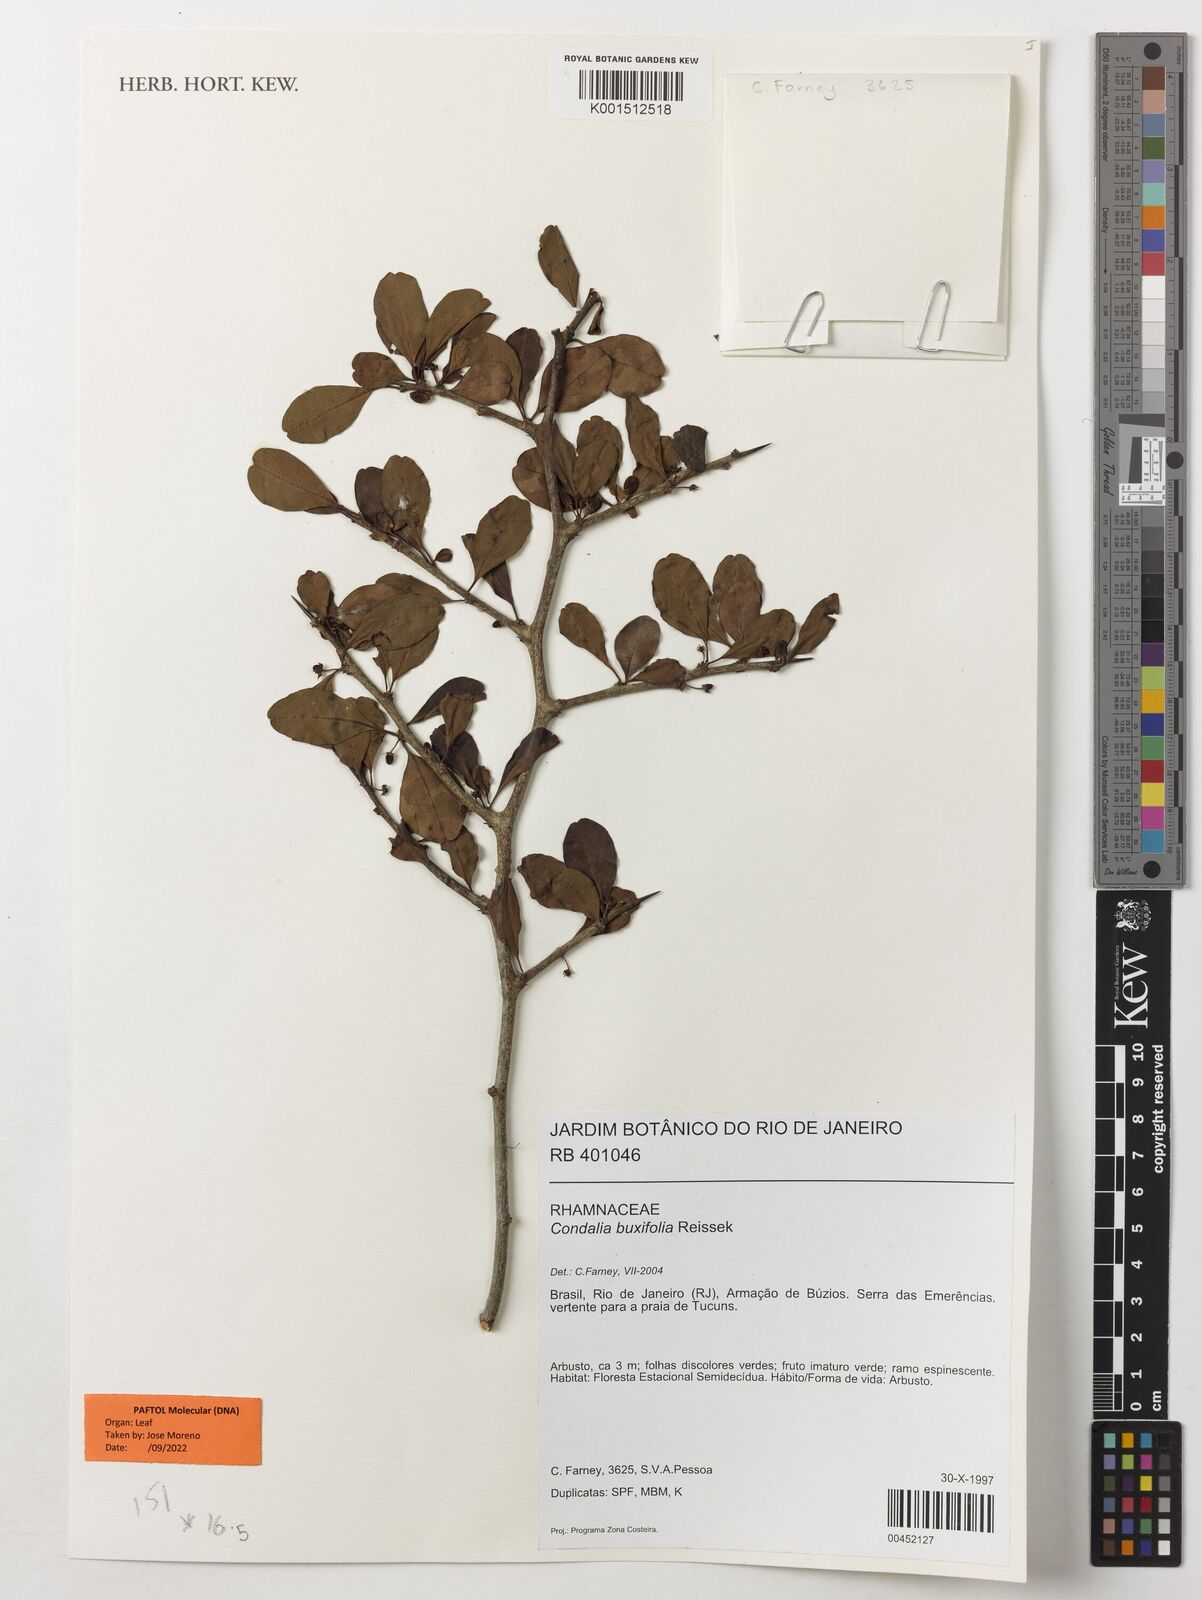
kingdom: Plantae
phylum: Tracheophyta
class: Magnoliopsida
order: Rosales
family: Rhamnaceae
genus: Condalia
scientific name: Condalia buxifolia
